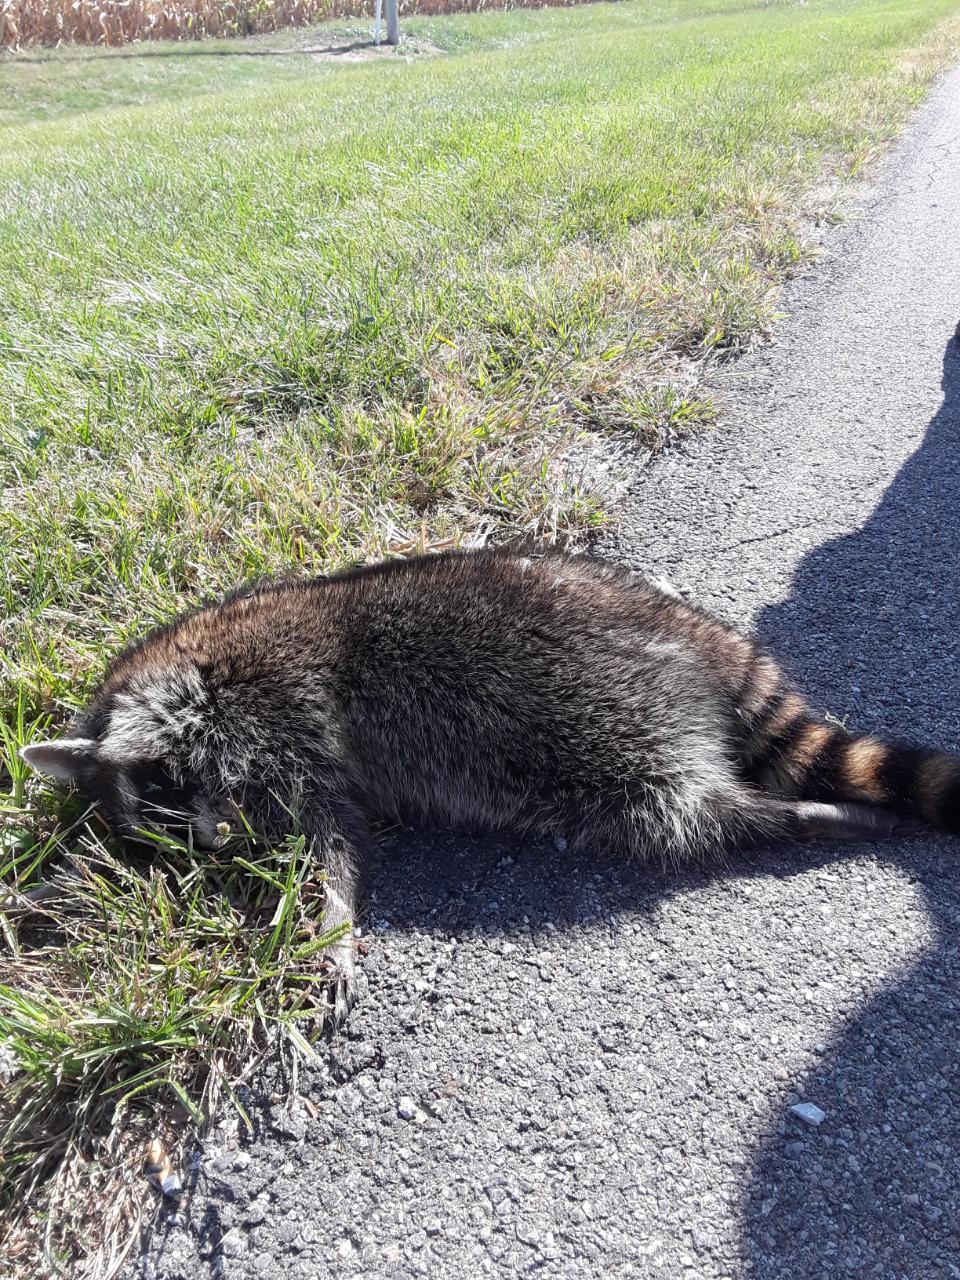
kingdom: Animalia
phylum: Chordata
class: Mammalia
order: Carnivora
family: Procyonidae
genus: Procyon
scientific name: Procyon lotor
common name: Raccoon
